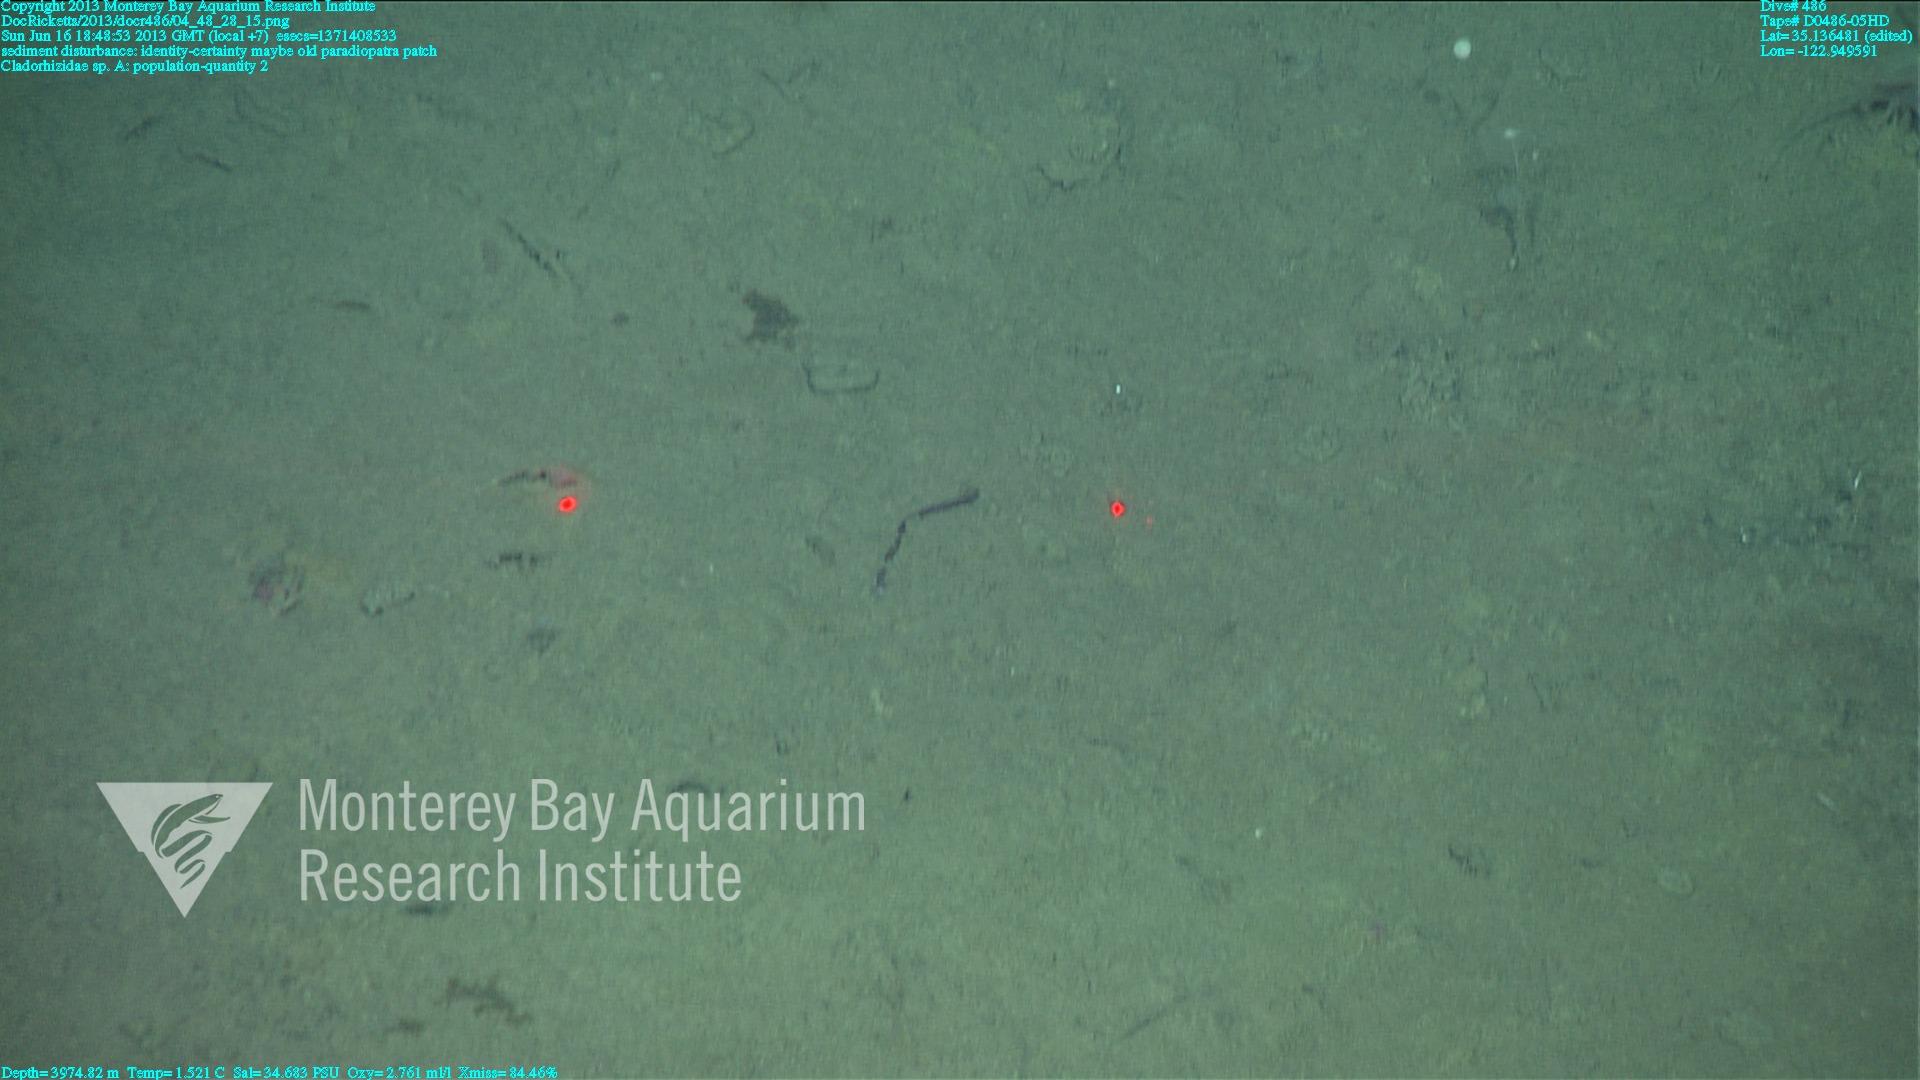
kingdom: Animalia
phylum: Porifera
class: Demospongiae
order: Poecilosclerida
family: Cladorhizidae
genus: Cladorhiza
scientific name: Cladorhiza
